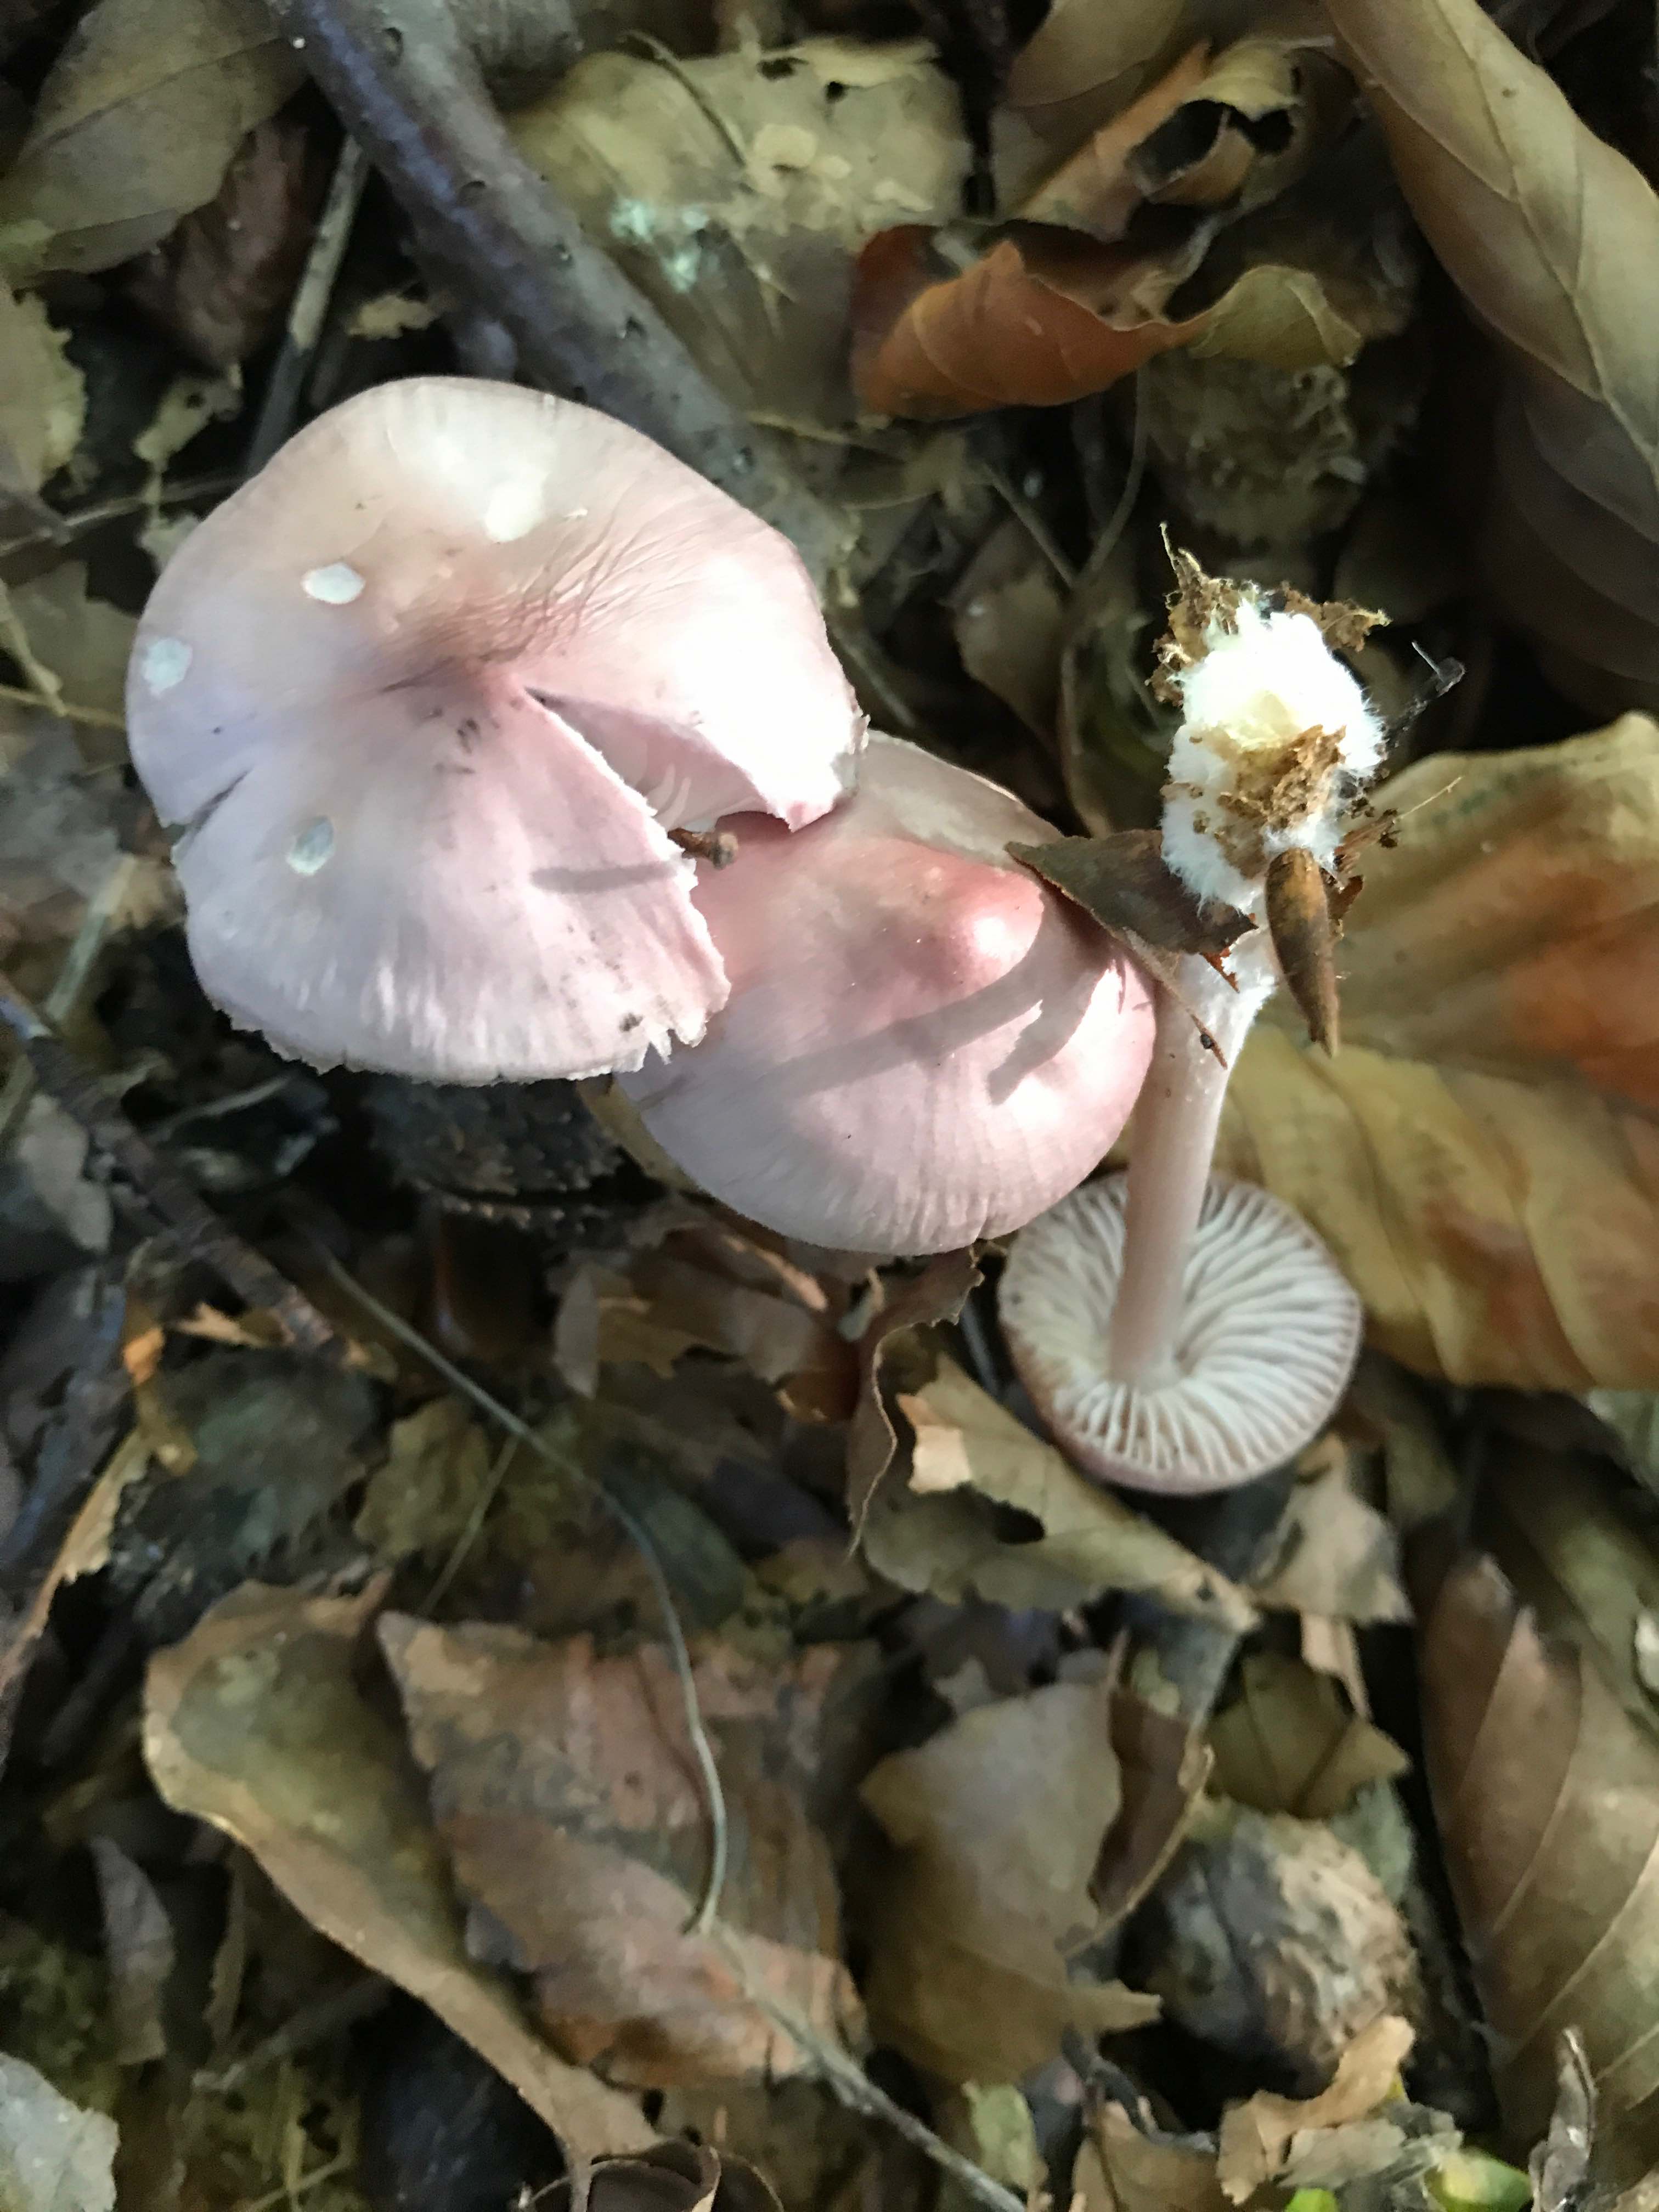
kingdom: Fungi
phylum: Basidiomycota
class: Agaricomycetes
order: Agaricales
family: Mycenaceae
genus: Mycena
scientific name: Mycena rosea
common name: rosa huesvamp
